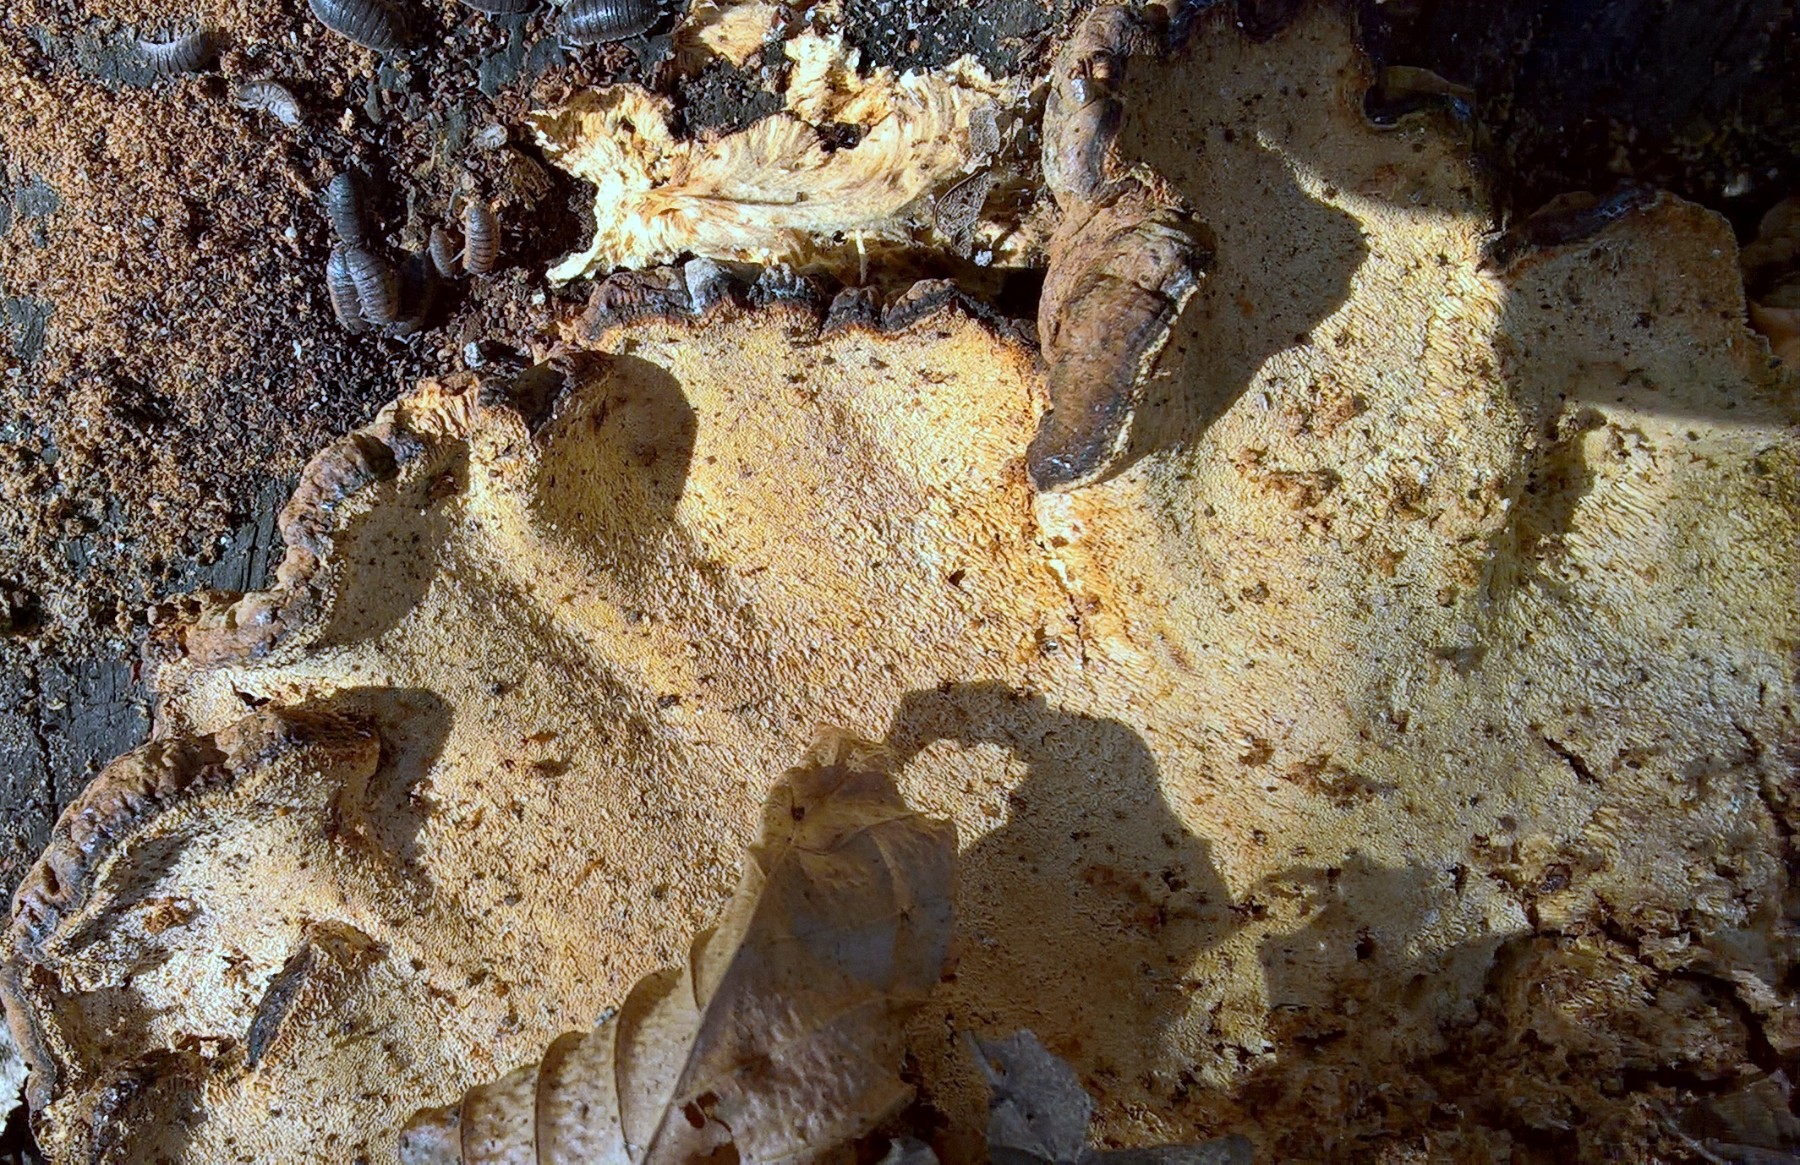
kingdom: Fungi
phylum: Basidiomycota
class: Agaricomycetes
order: Polyporales
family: Ischnodermataceae
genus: Ischnoderma
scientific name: Ischnoderma resinosum
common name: løv-tjæreporesvamp
